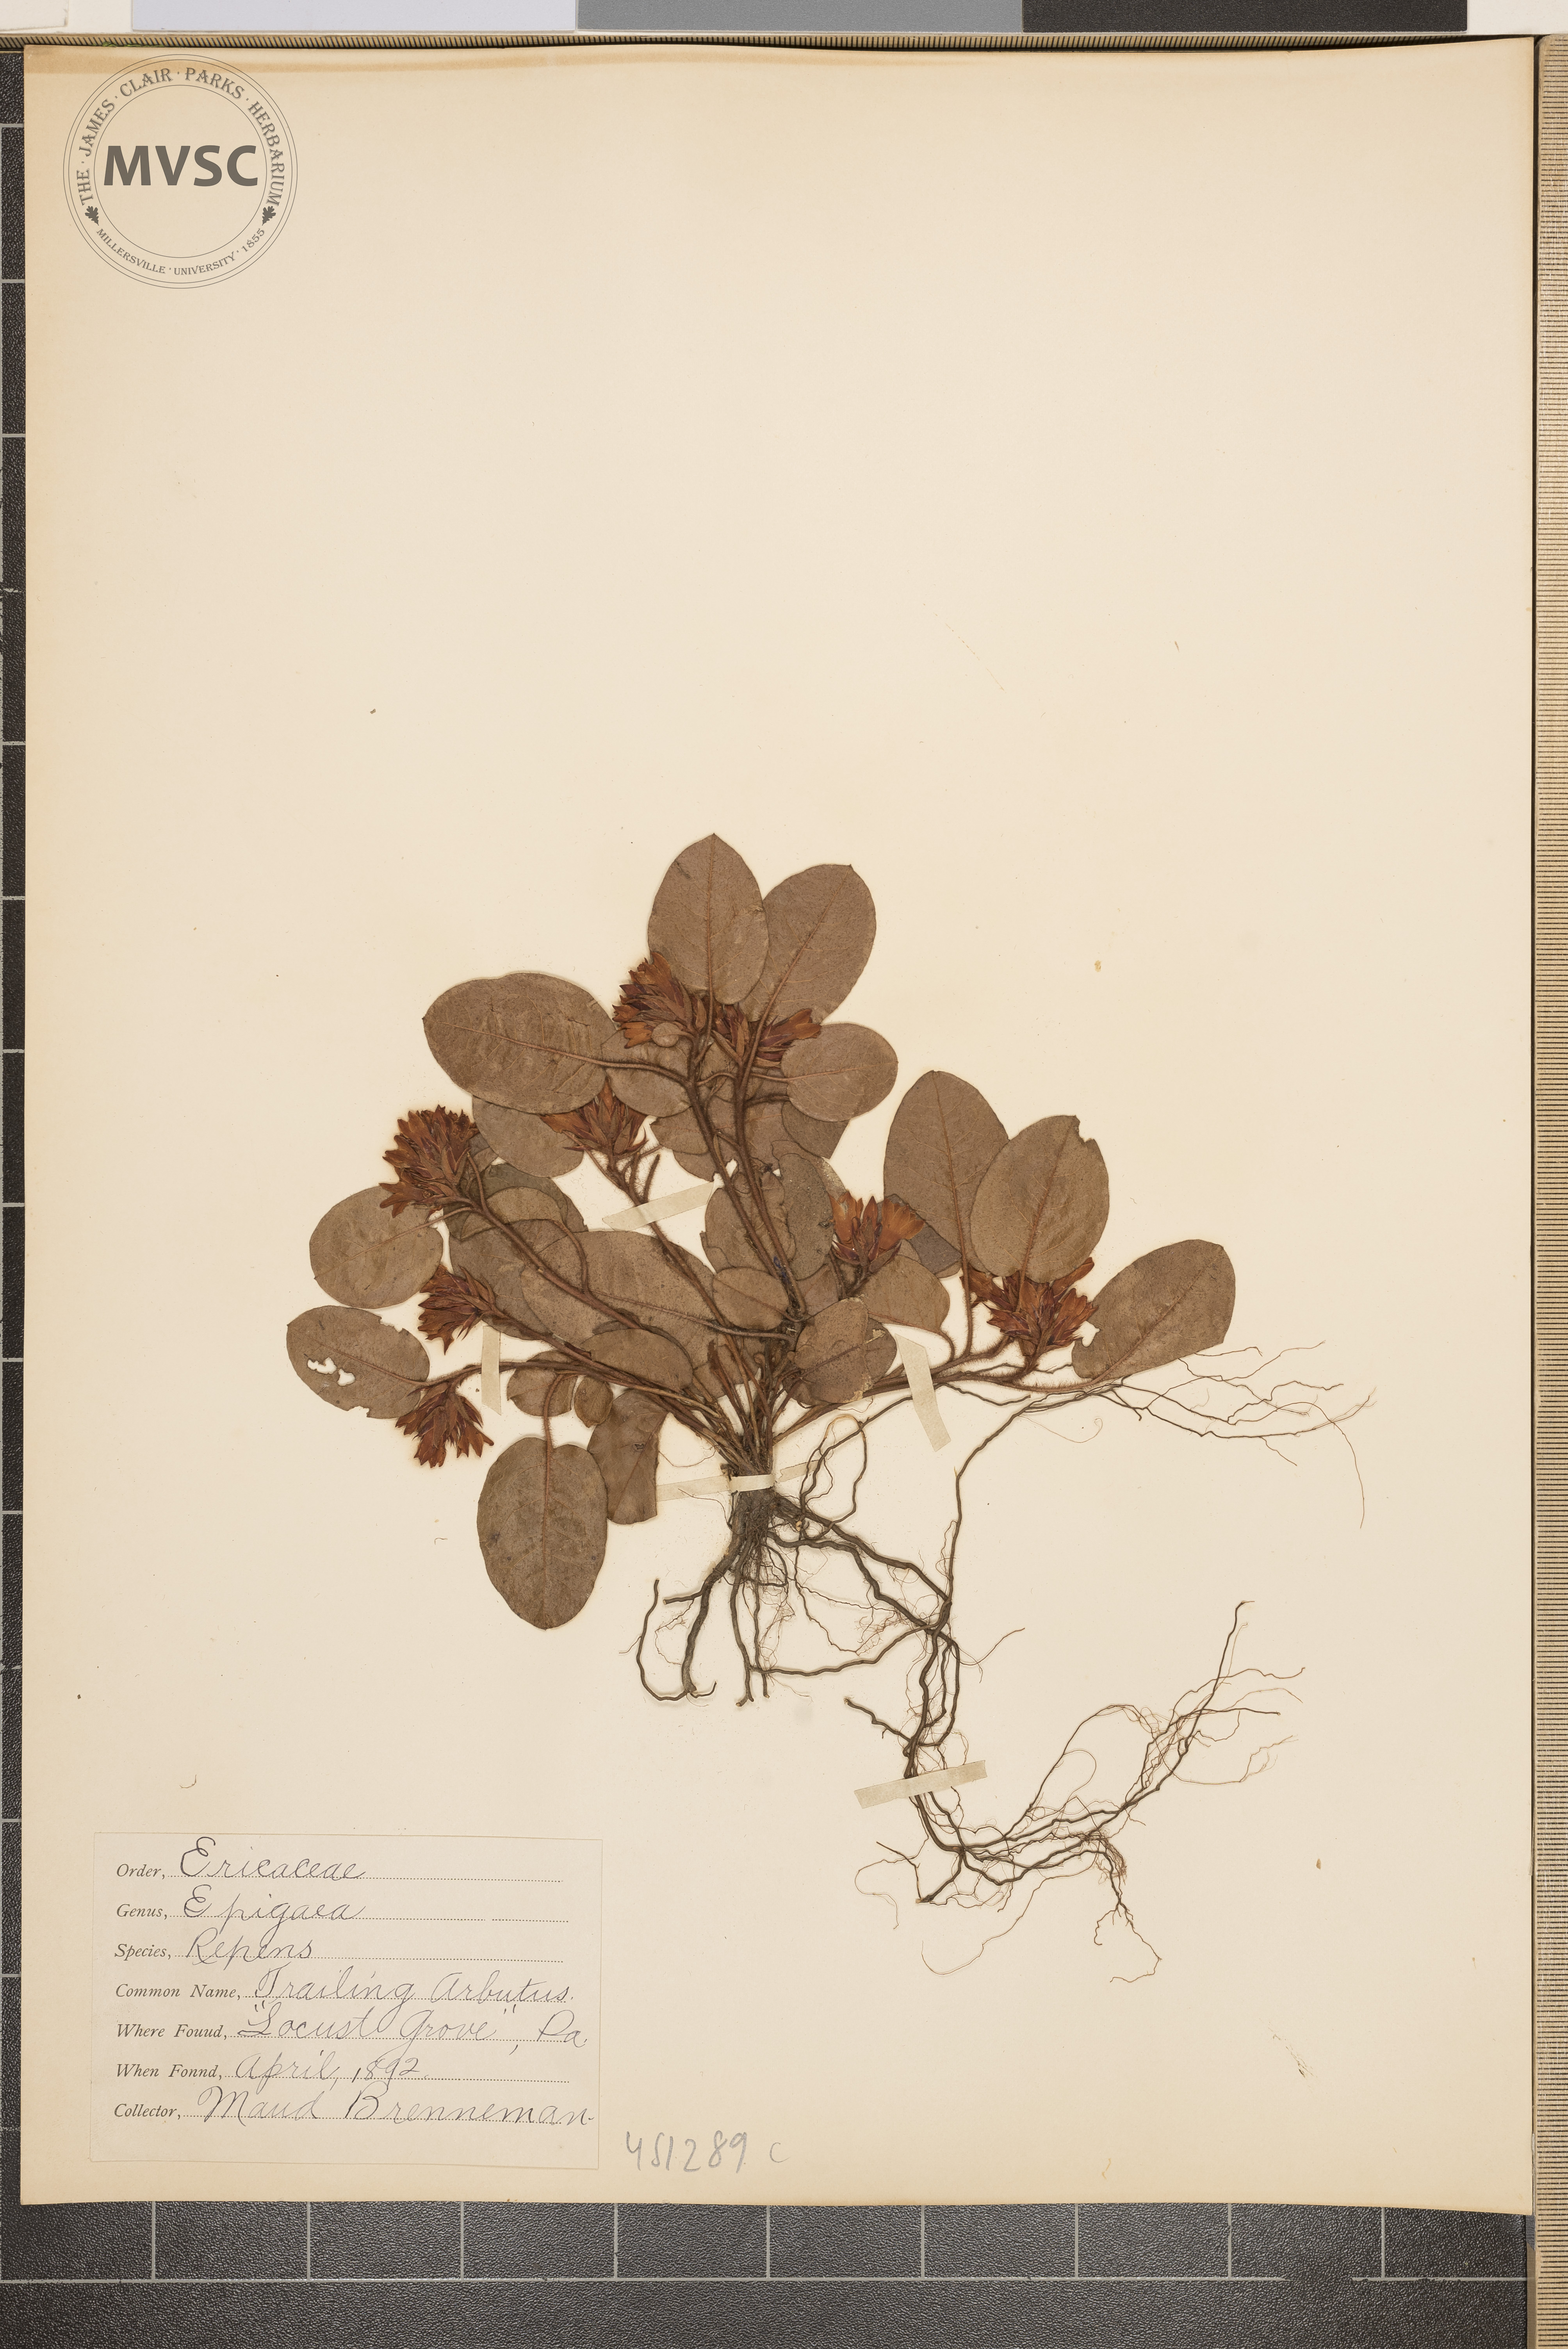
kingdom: Plantae
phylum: Tracheophyta
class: Magnoliopsida
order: Ericales
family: Ericaceae
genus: Epigaea
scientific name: Epigaea repens
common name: Trailing arbutus
